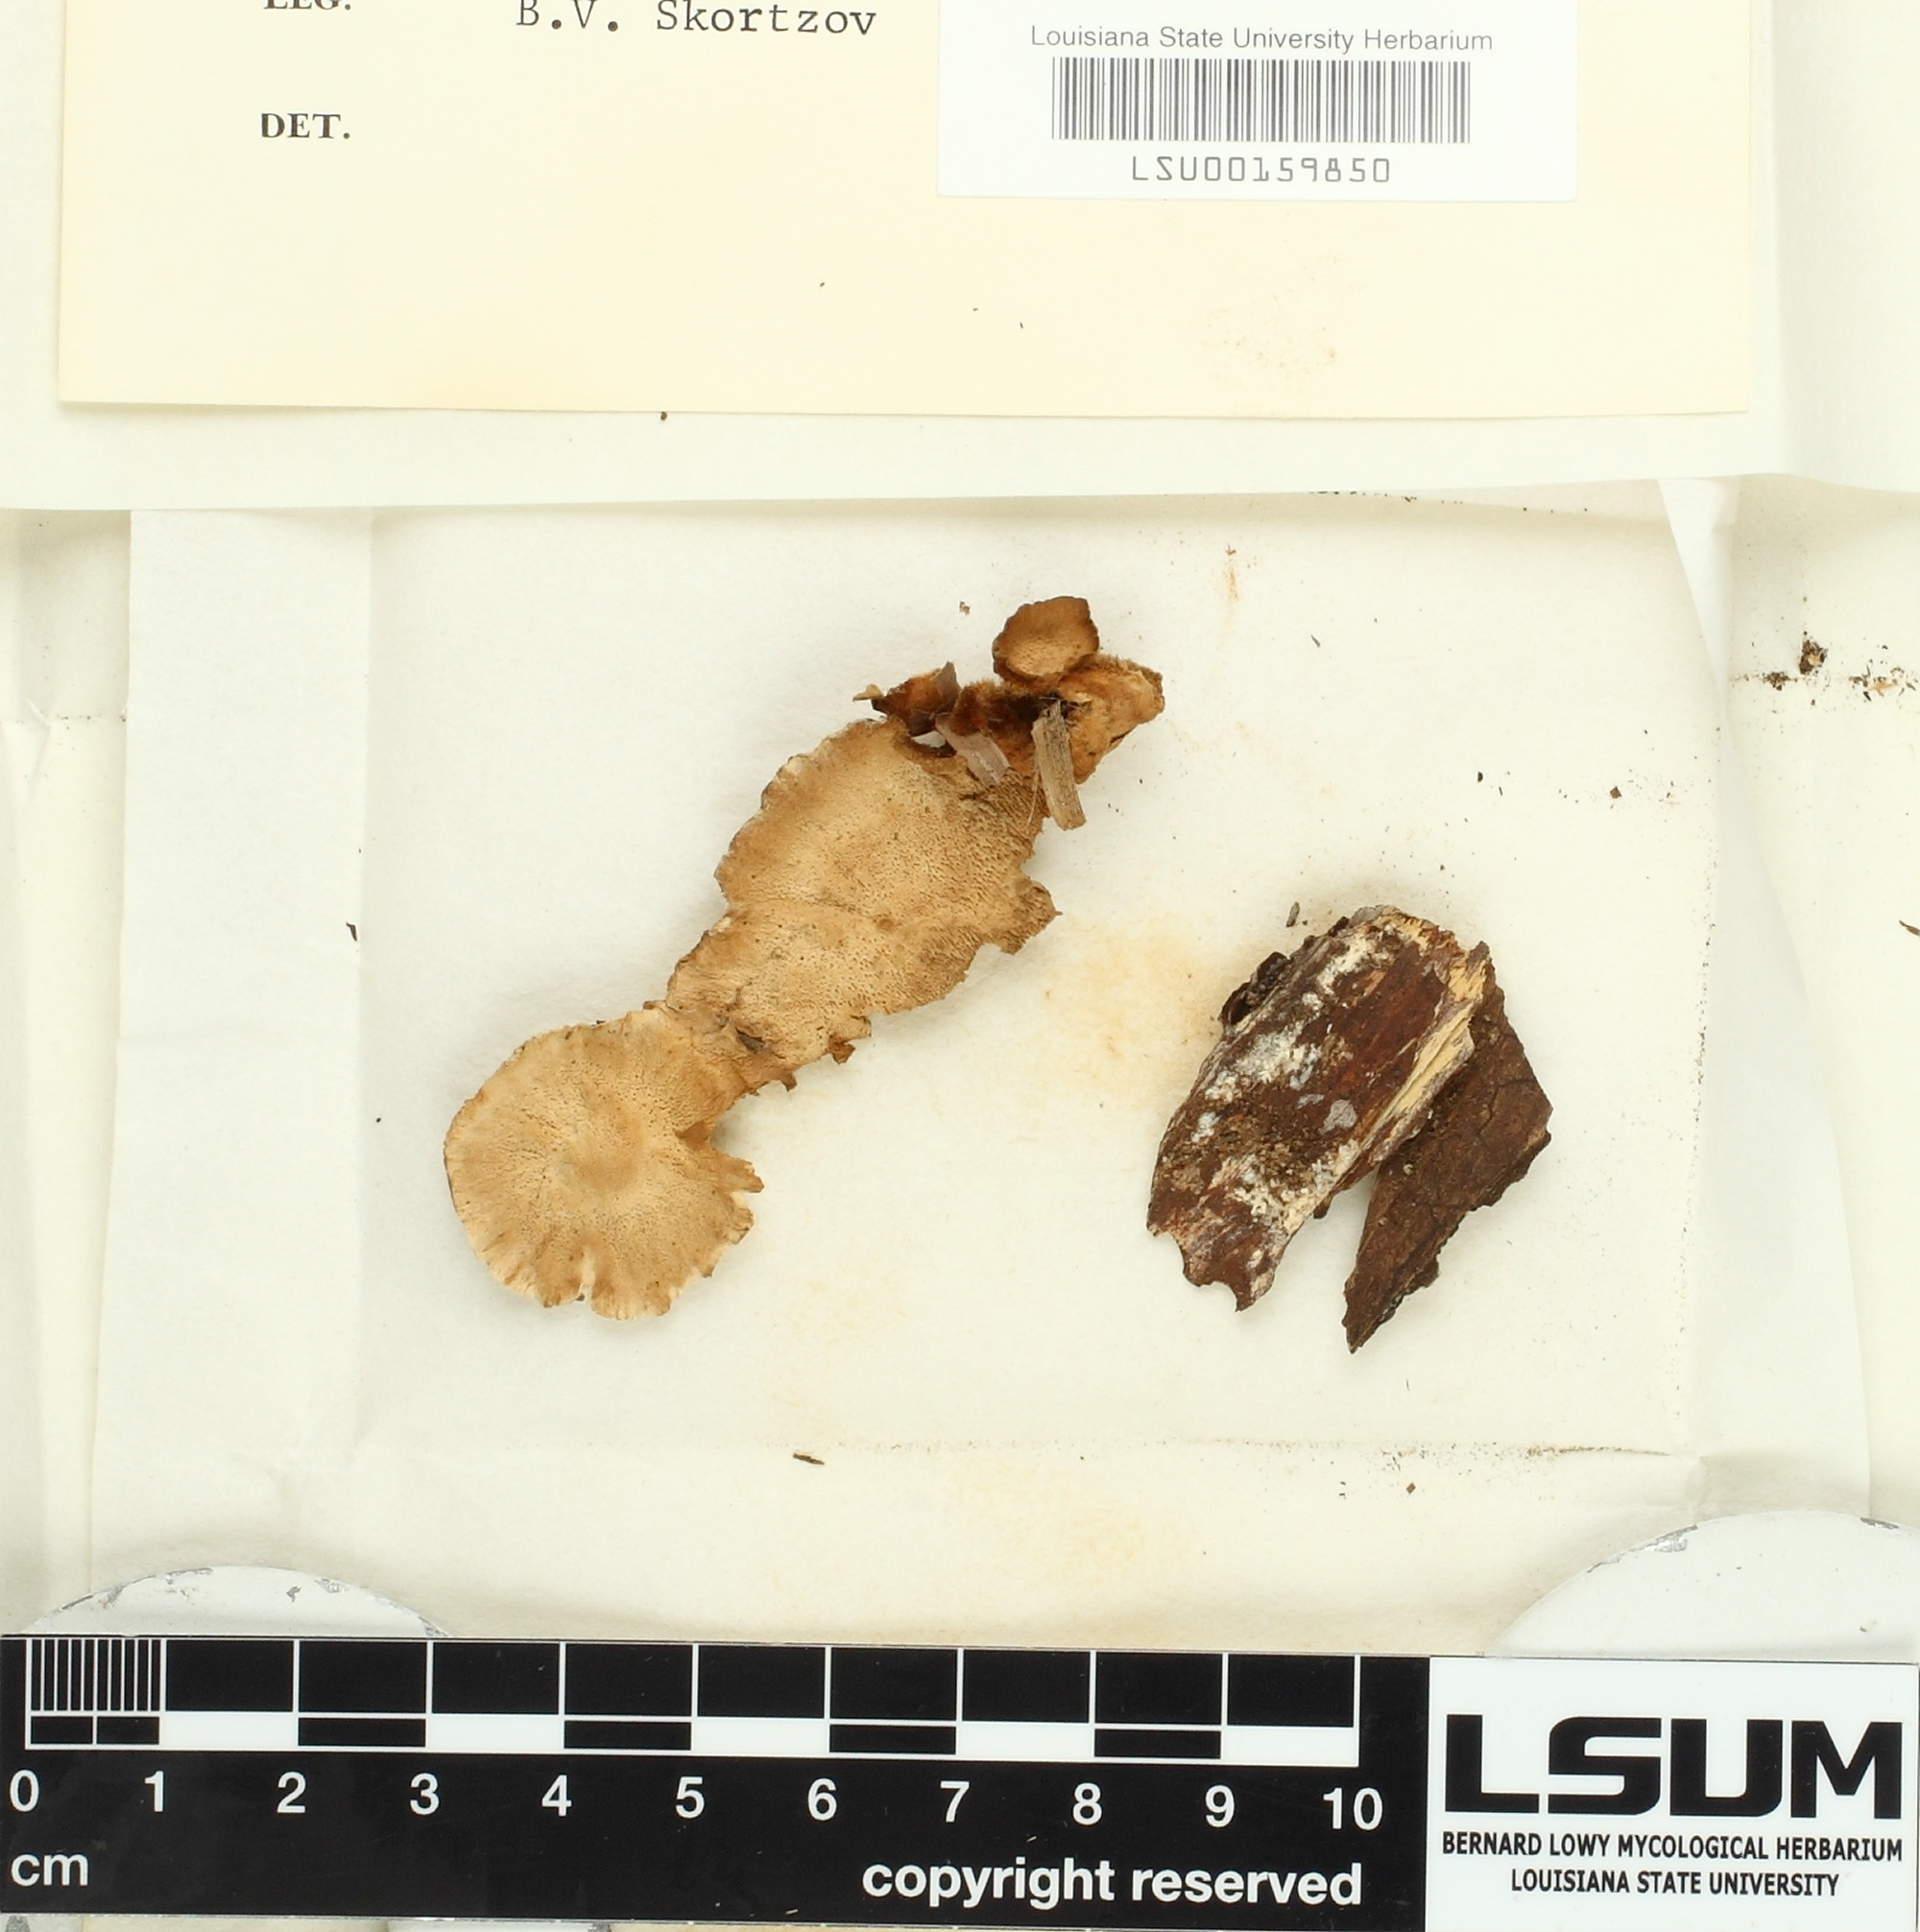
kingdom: Fungi
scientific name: Fungi
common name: Fungi
